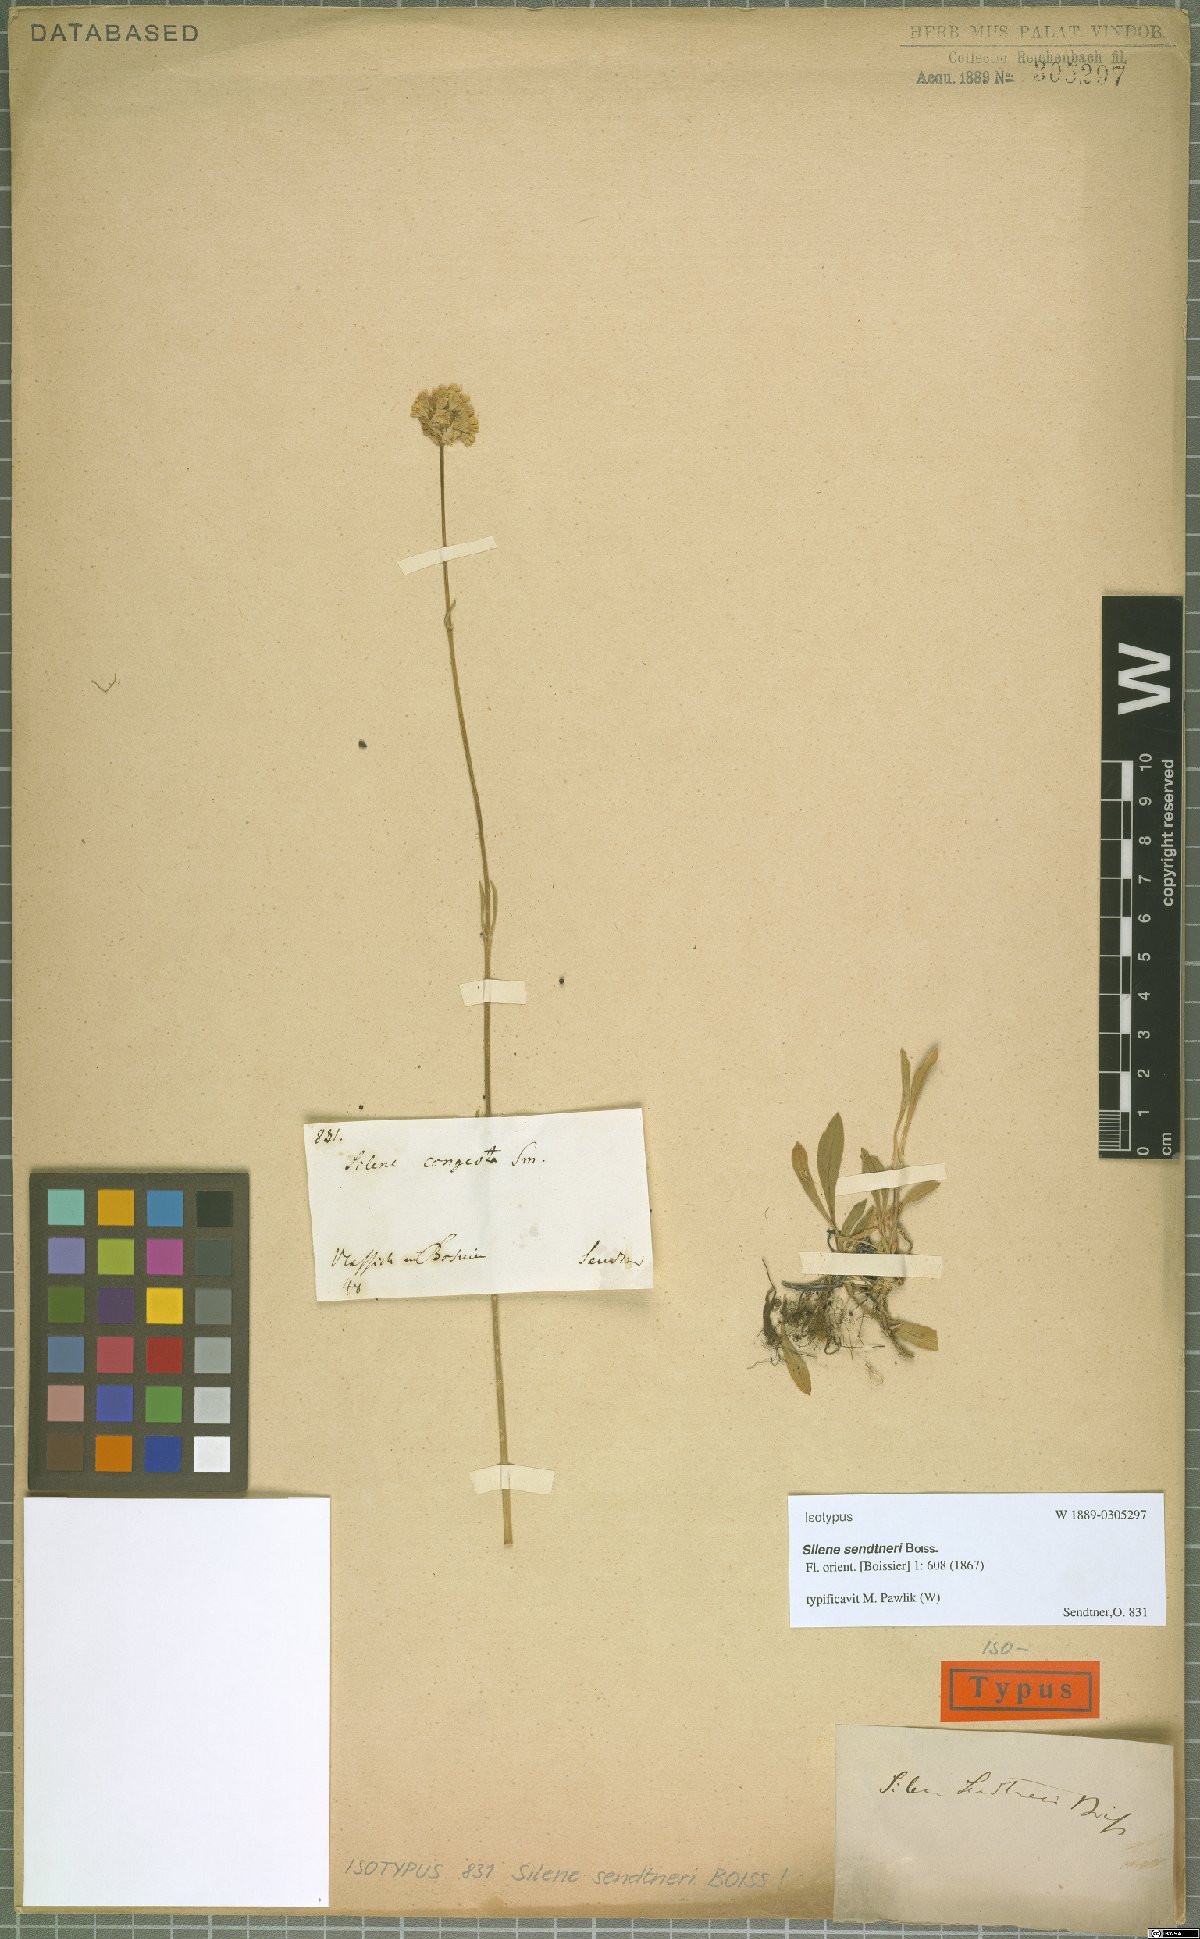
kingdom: Plantae
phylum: Tracheophyta
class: Magnoliopsida
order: Caryophyllales
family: Caryophyllaceae
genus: Silene
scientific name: Silene sendtneri
